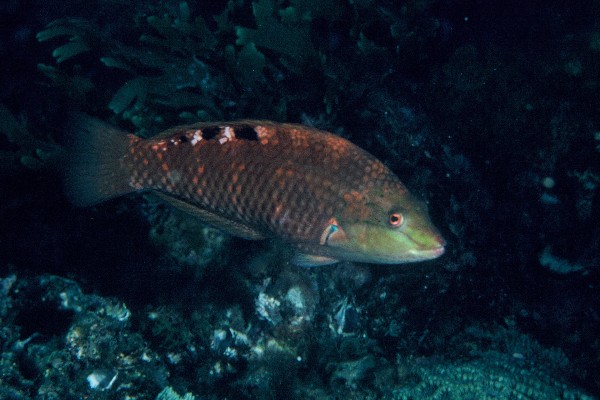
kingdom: Animalia
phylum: Chordata
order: Perciformes
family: Labridae
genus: Pseudolabrus
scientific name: Pseudolabrus luculentus
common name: Luculentus wrasse
